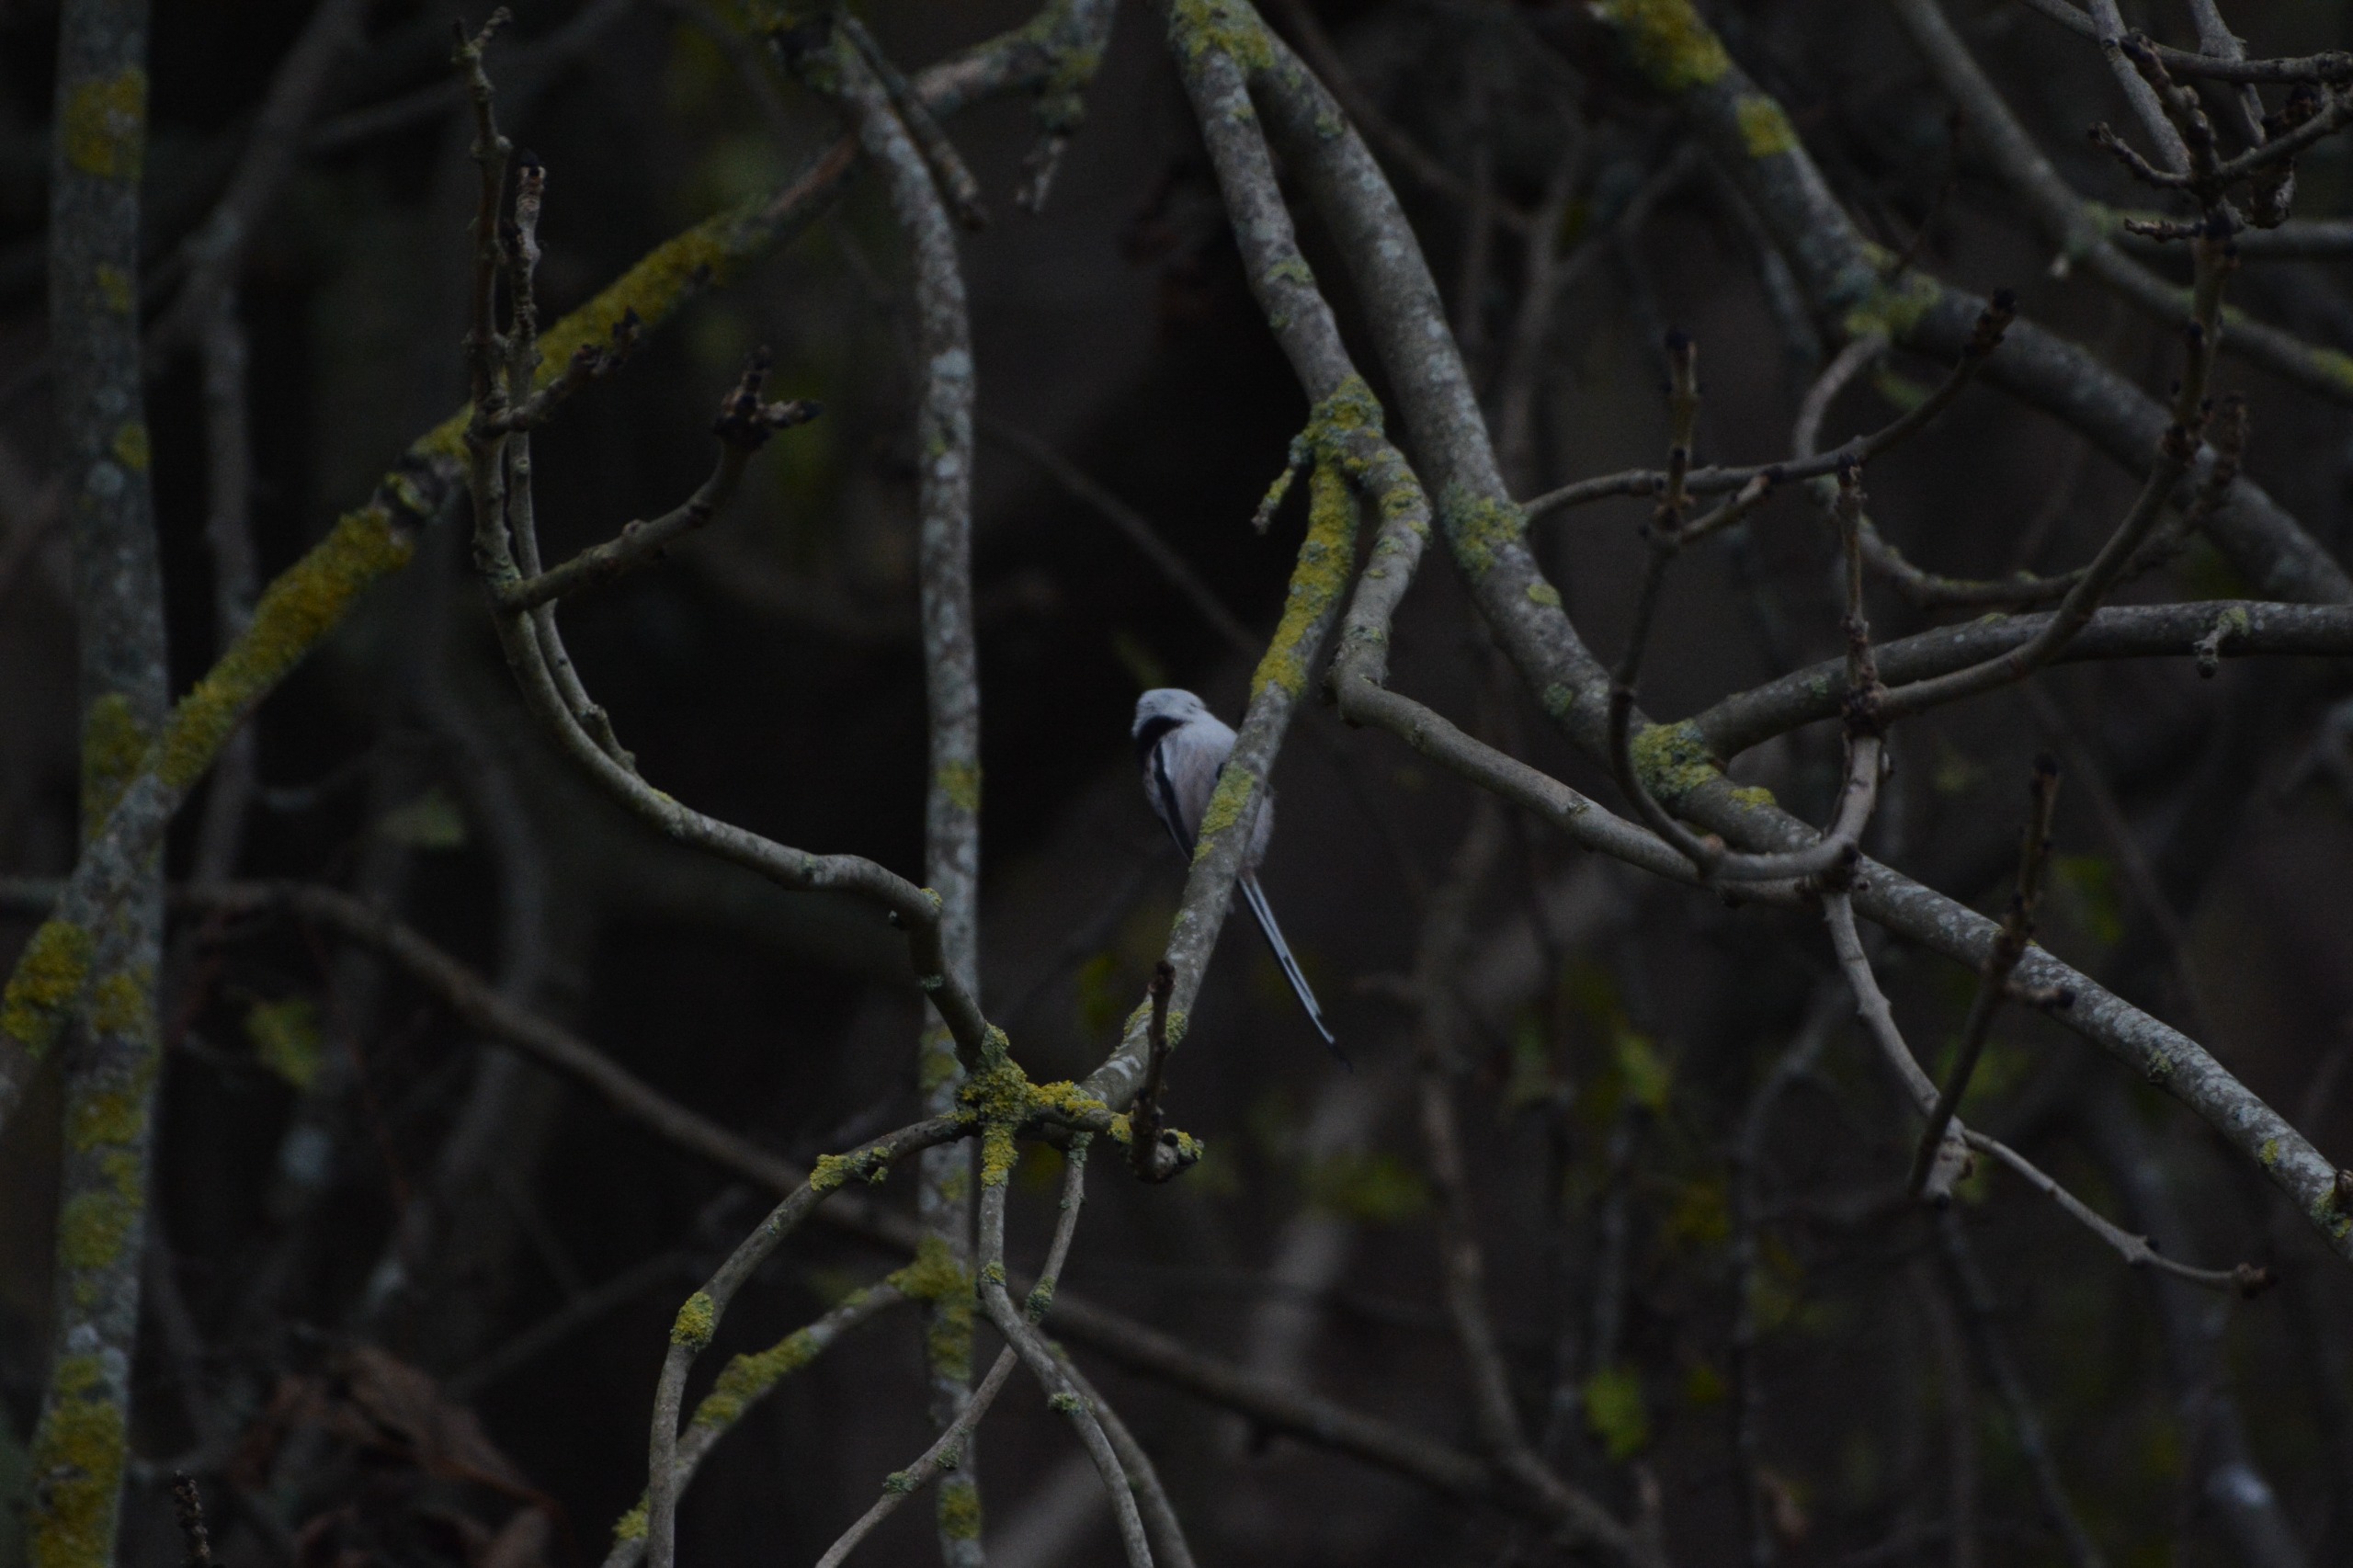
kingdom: Animalia
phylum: Chordata
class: Aves
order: Passeriformes
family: Aegithalidae
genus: Aegithalos
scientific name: Aegithalos caudatus
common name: Nordlig halemejse
